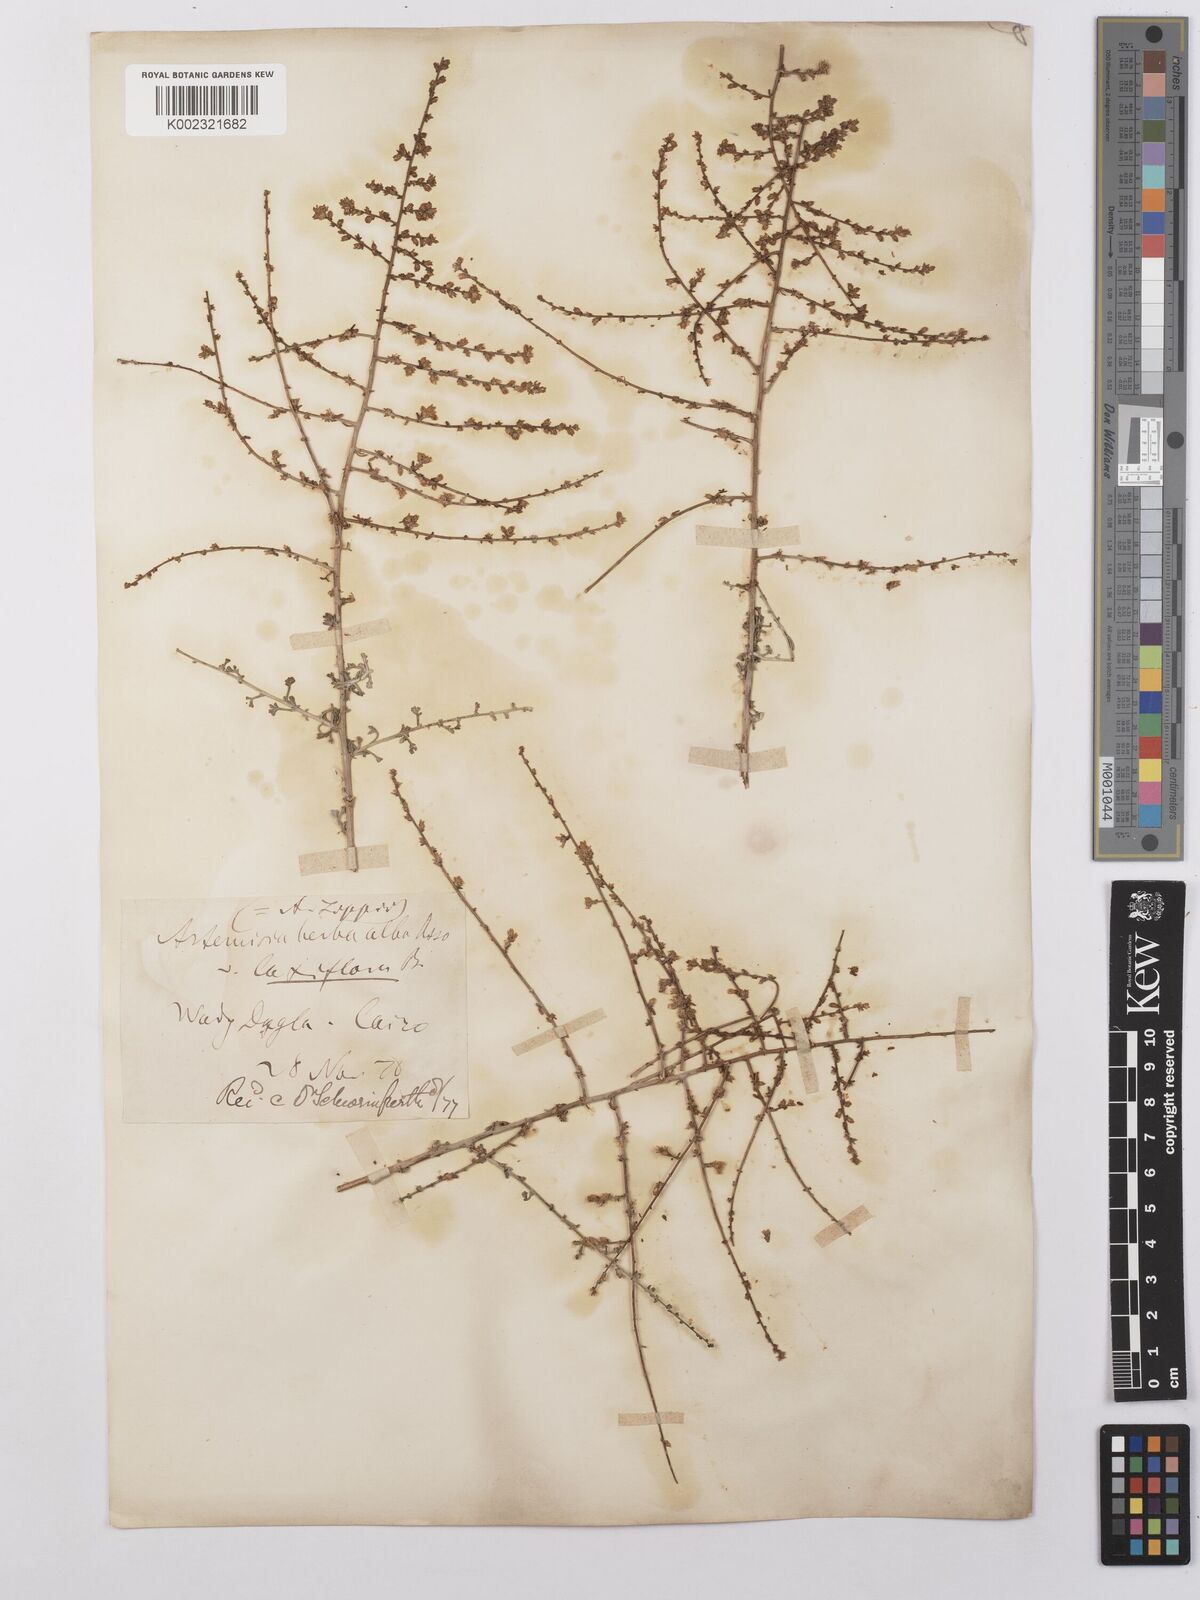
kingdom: Plantae
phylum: Tracheophyta
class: Magnoliopsida
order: Asterales
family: Asteraceae
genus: Artemisia
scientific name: Artemisia herba-alba
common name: White wormwood
